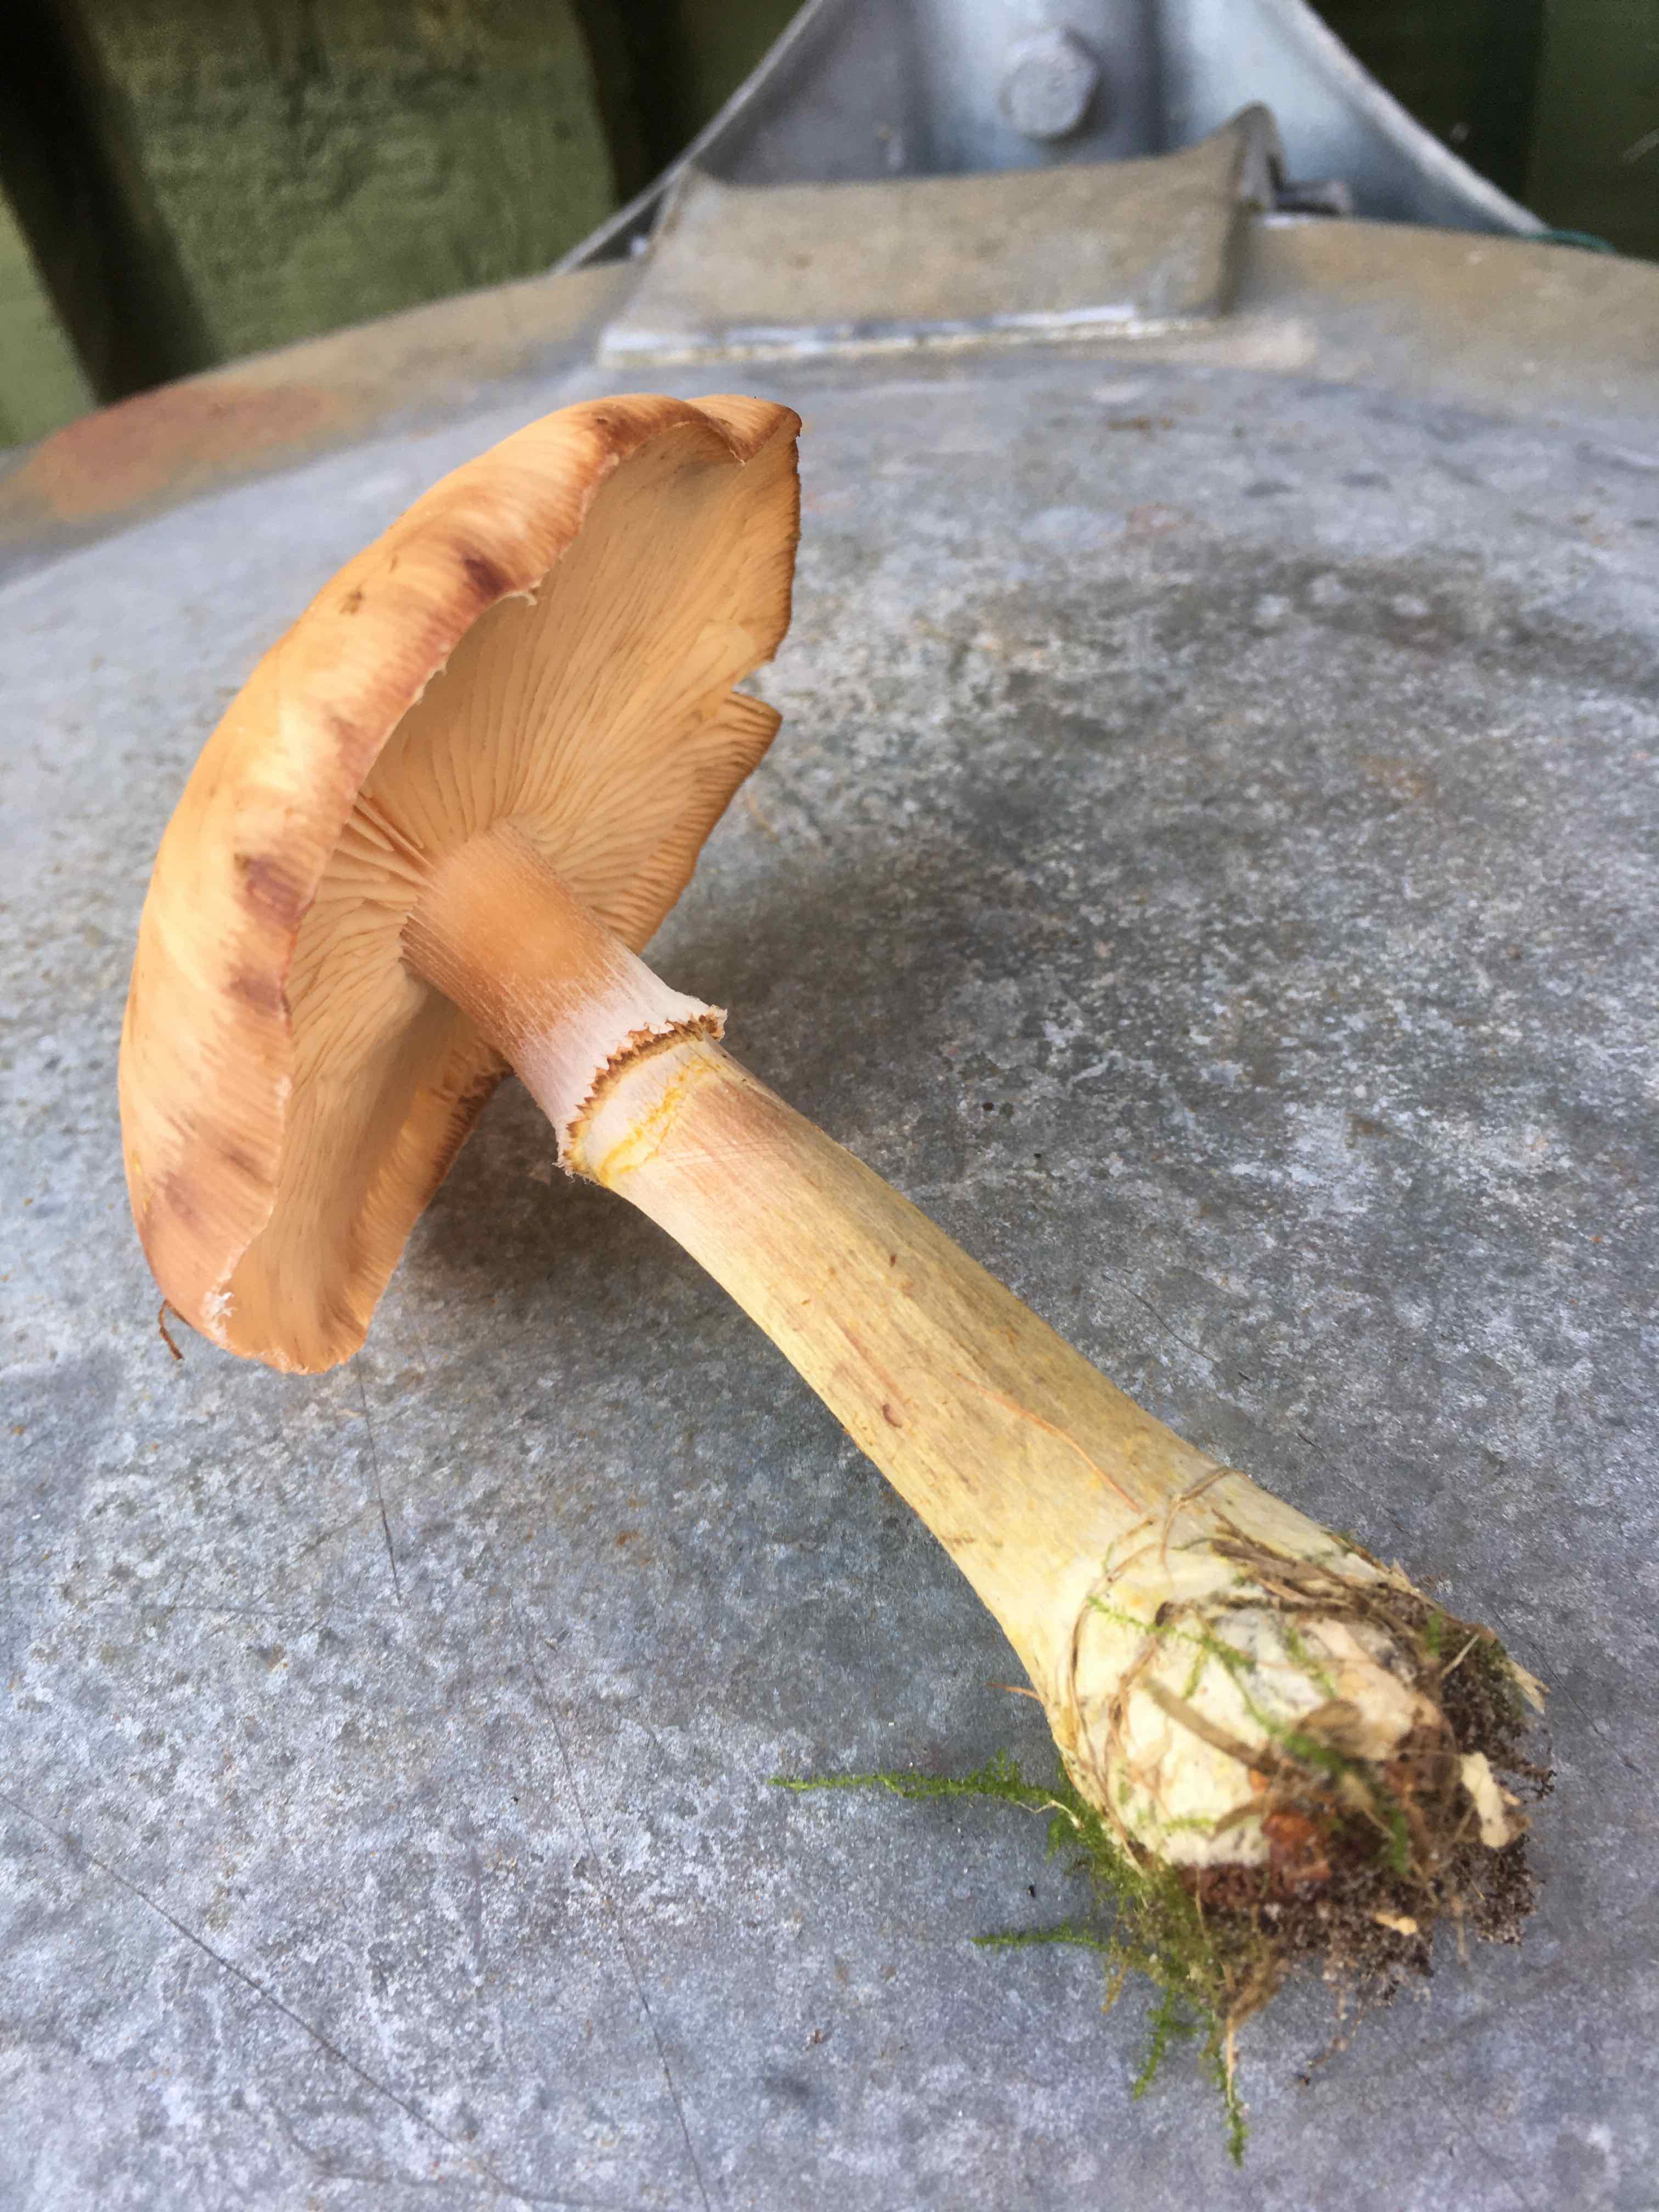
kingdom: Fungi
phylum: Basidiomycota
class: Agaricomycetes
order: Agaricales
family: Physalacriaceae
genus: Armillaria
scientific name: Armillaria lutea
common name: køllestokket honningsvamp
